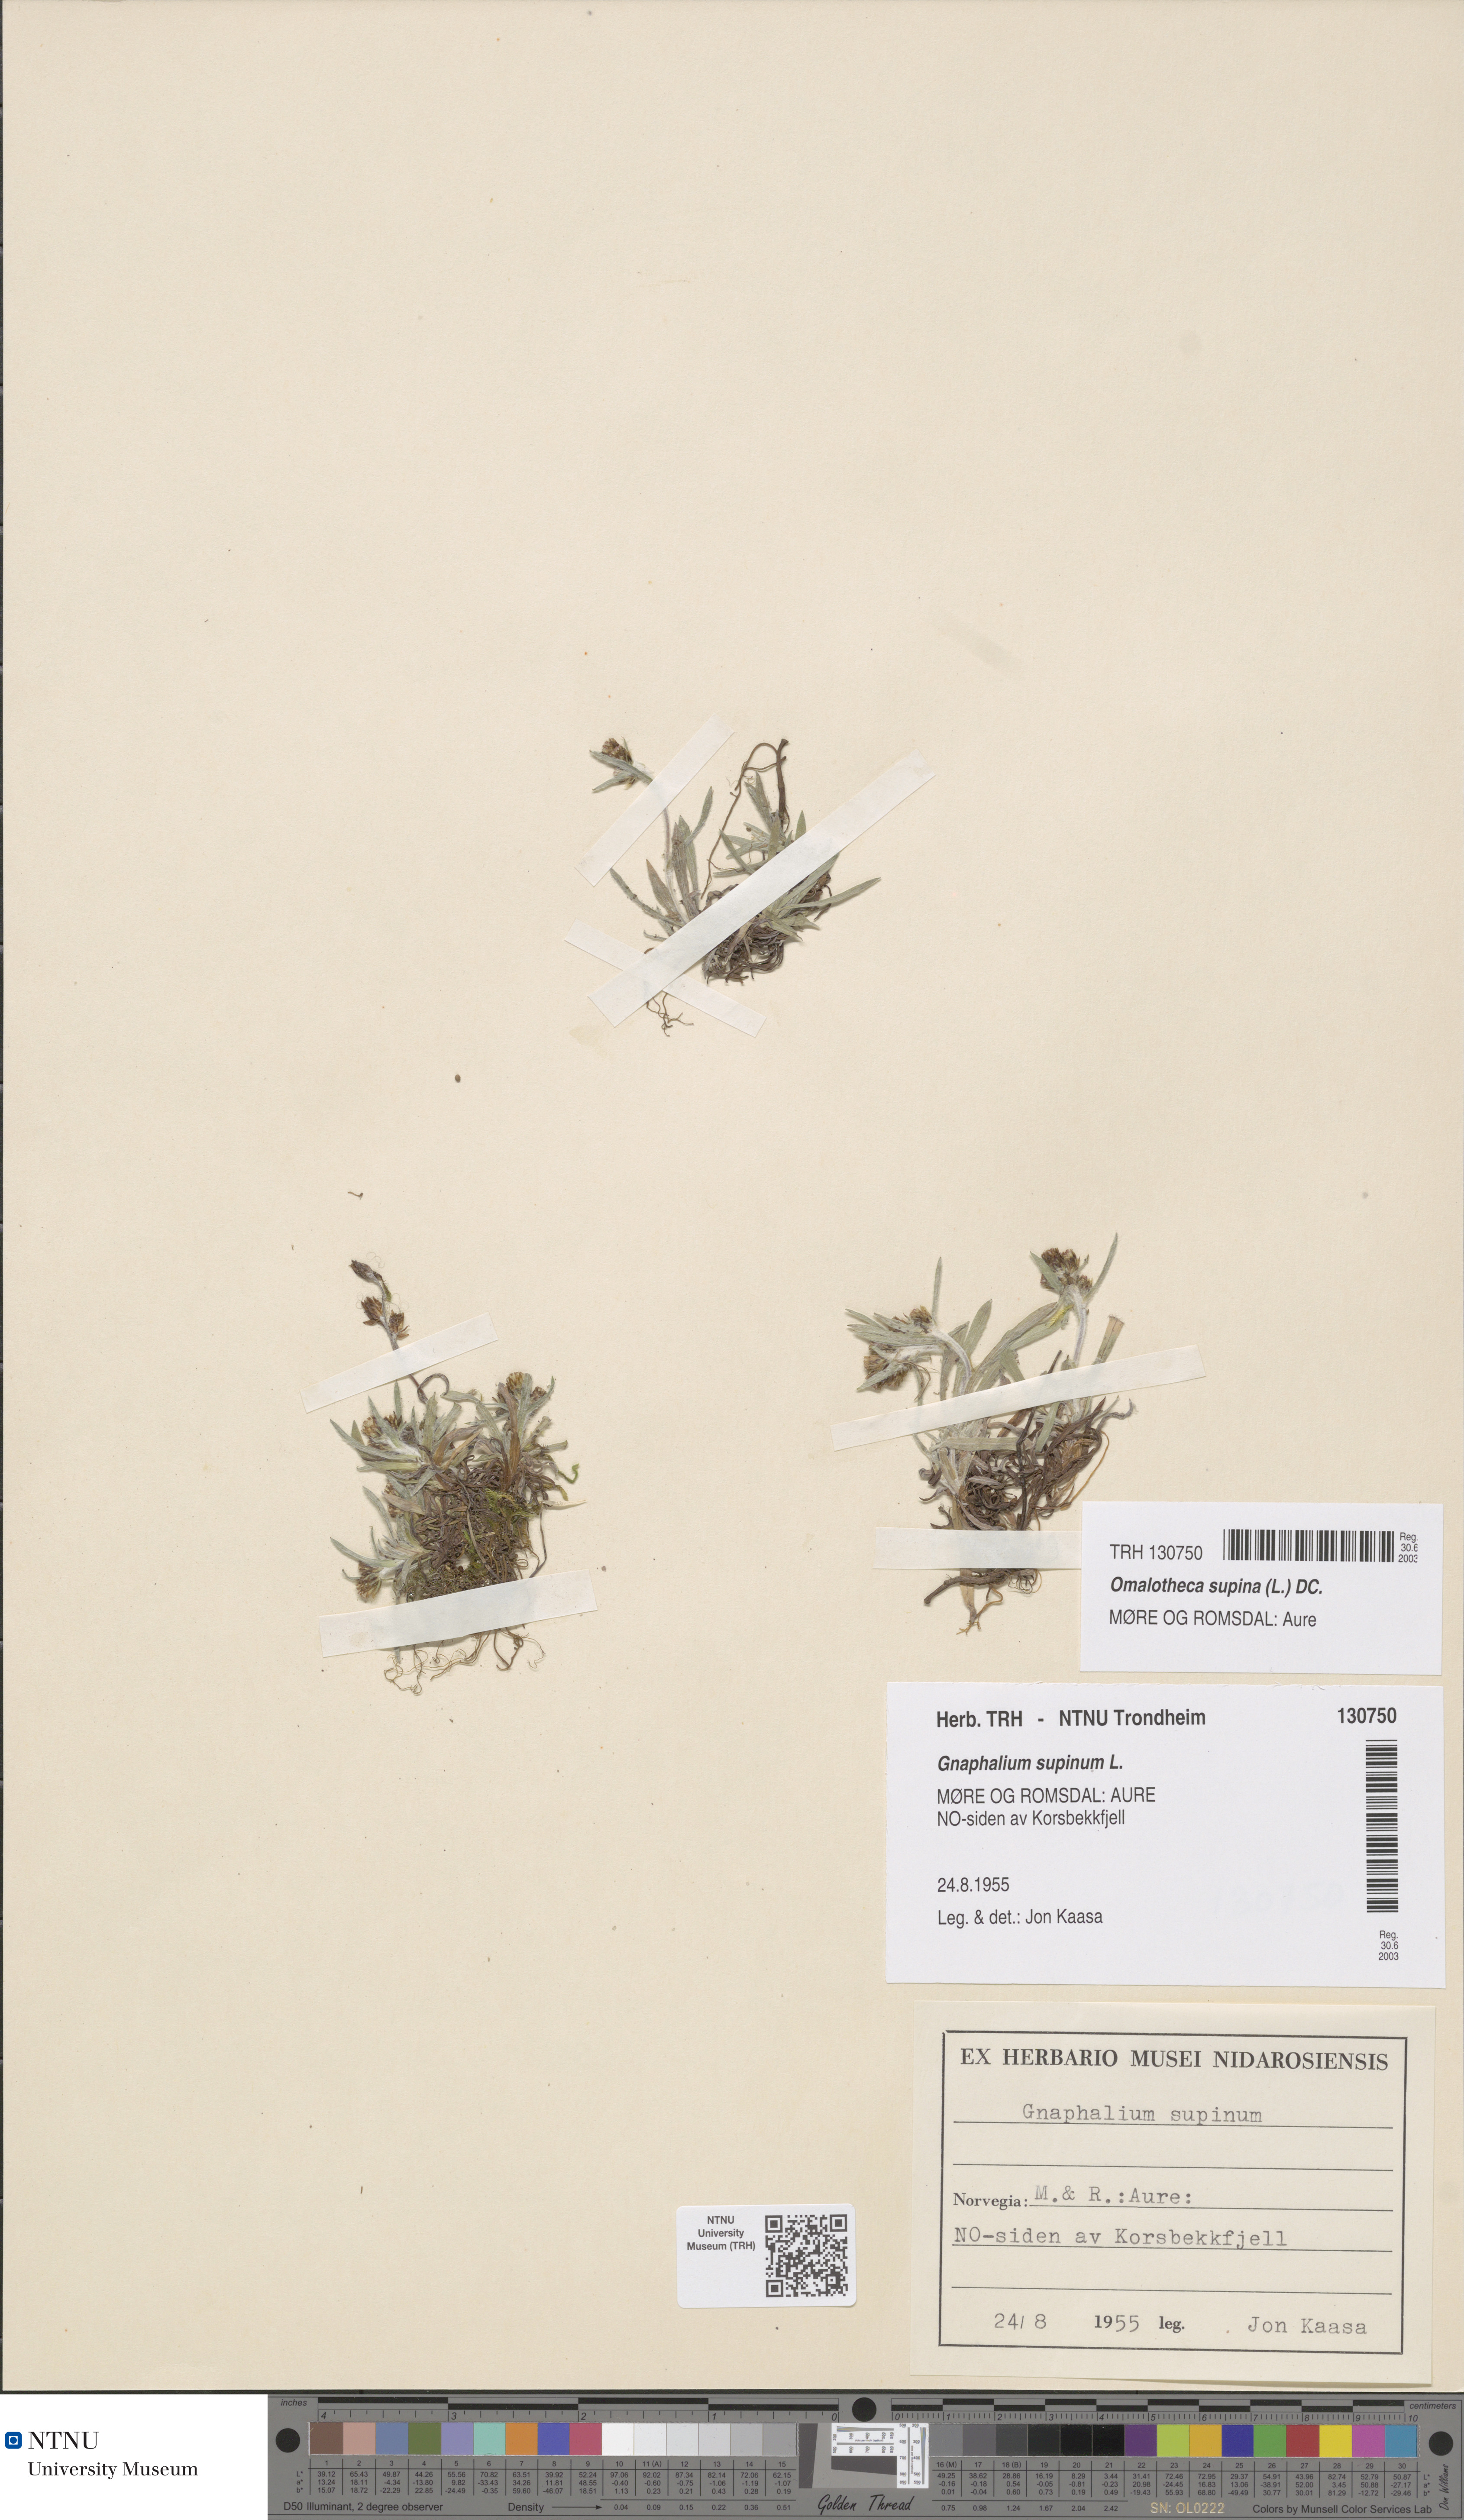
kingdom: Plantae
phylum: Tracheophyta
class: Magnoliopsida
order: Asterales
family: Asteraceae
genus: Omalotheca
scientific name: Omalotheca supina
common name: Alpine arctic-cudweed
